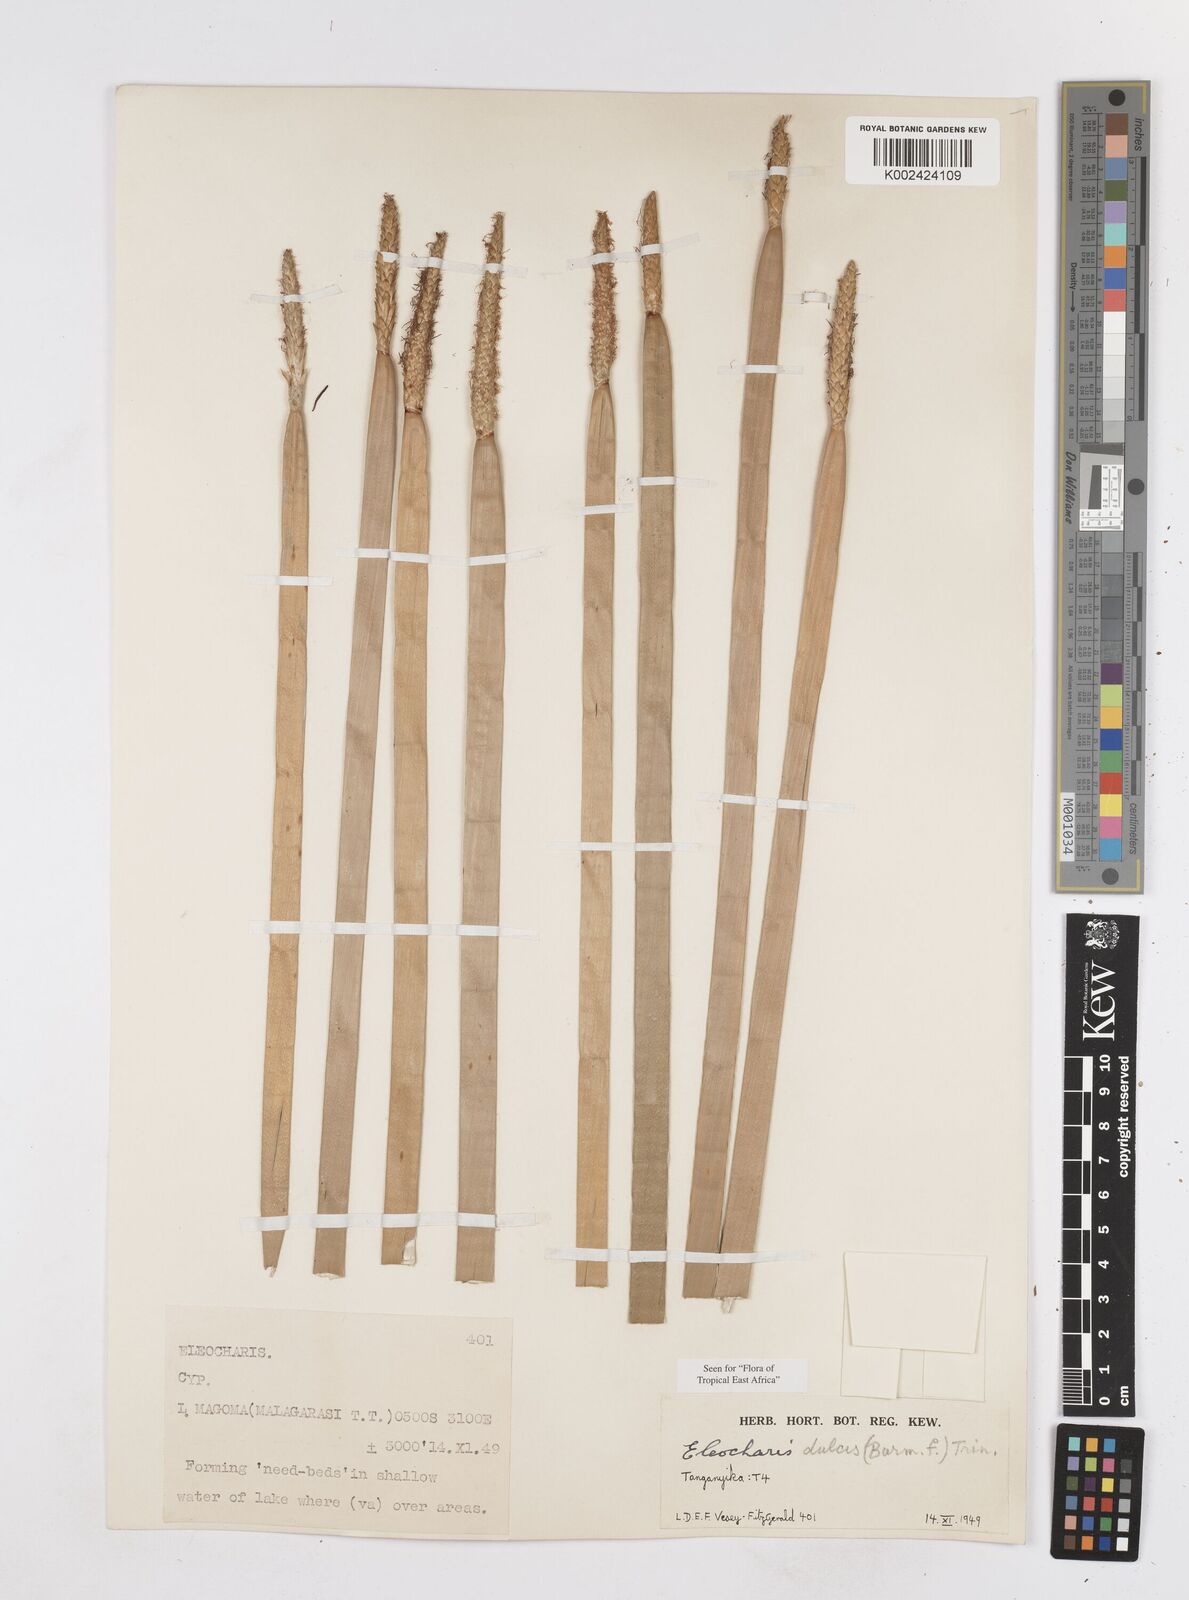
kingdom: Plantae
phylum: Tracheophyta
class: Liliopsida
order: Poales
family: Cyperaceae
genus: Eleocharis
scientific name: Eleocharis dulcis
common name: Chinese water chestnut
